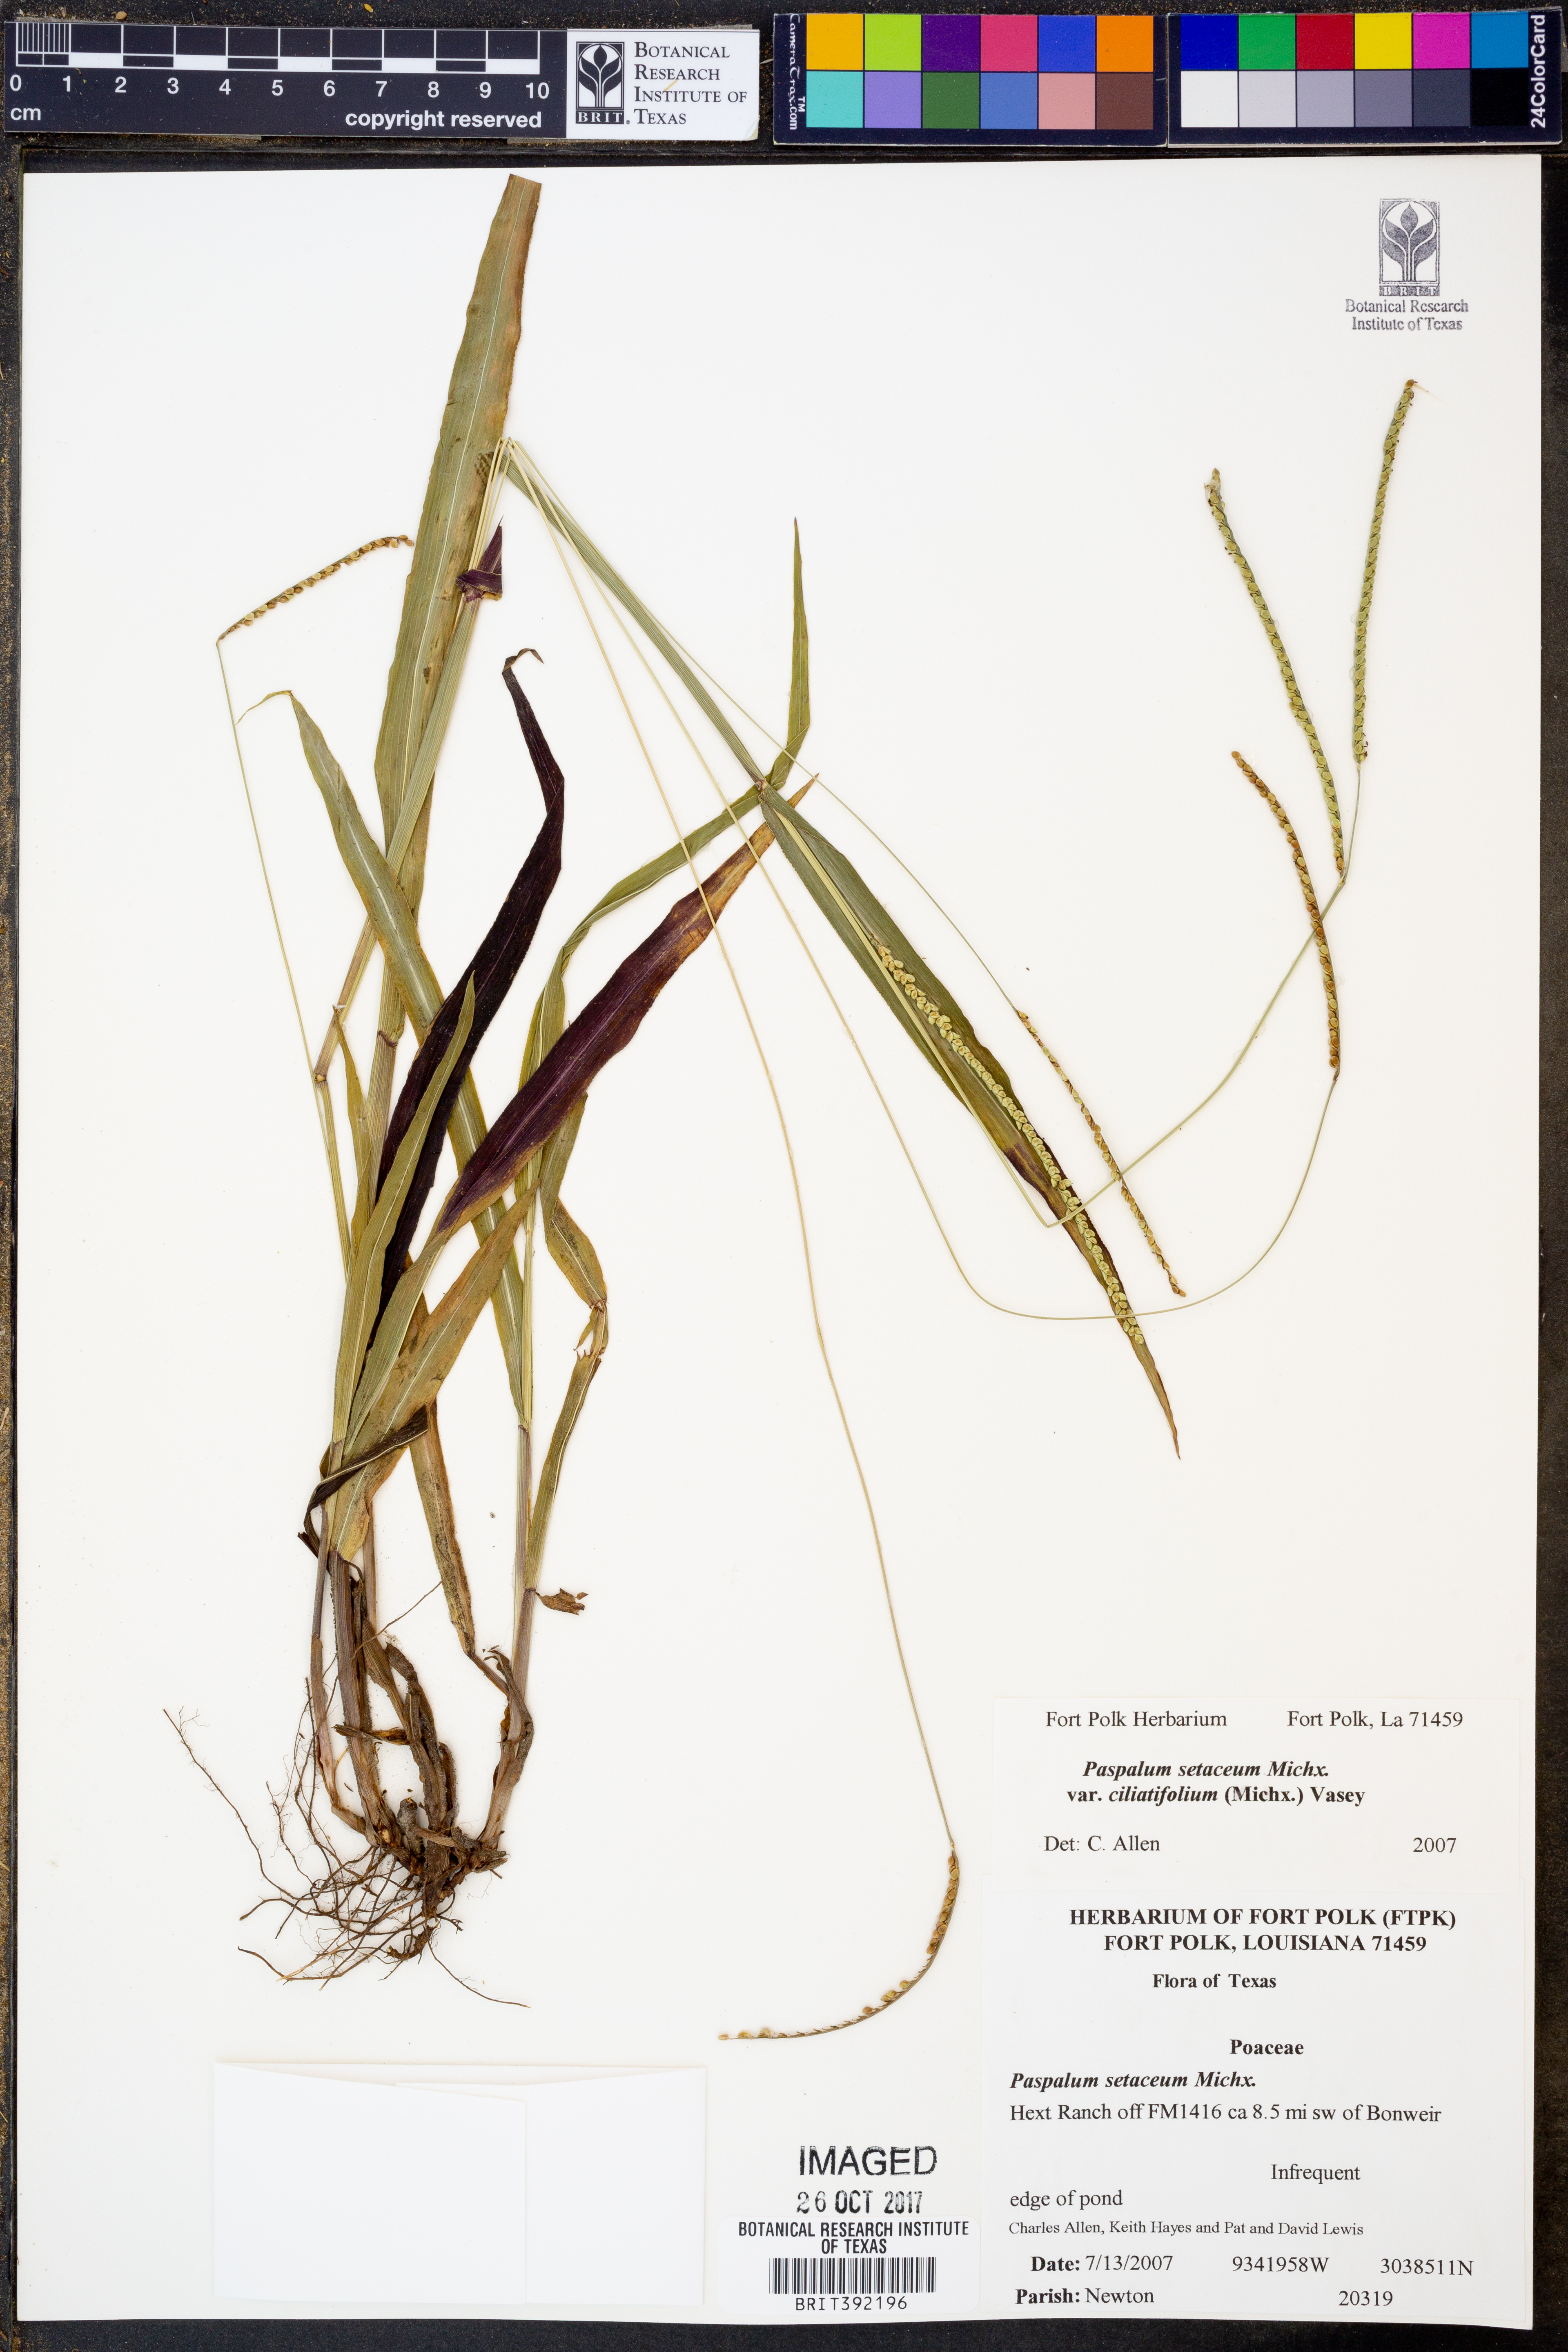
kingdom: Plantae
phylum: Tracheophyta
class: Liliopsida
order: Poales
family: Poaceae
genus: Paspalum
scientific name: Paspalum setaceum
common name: Slender paspalum
